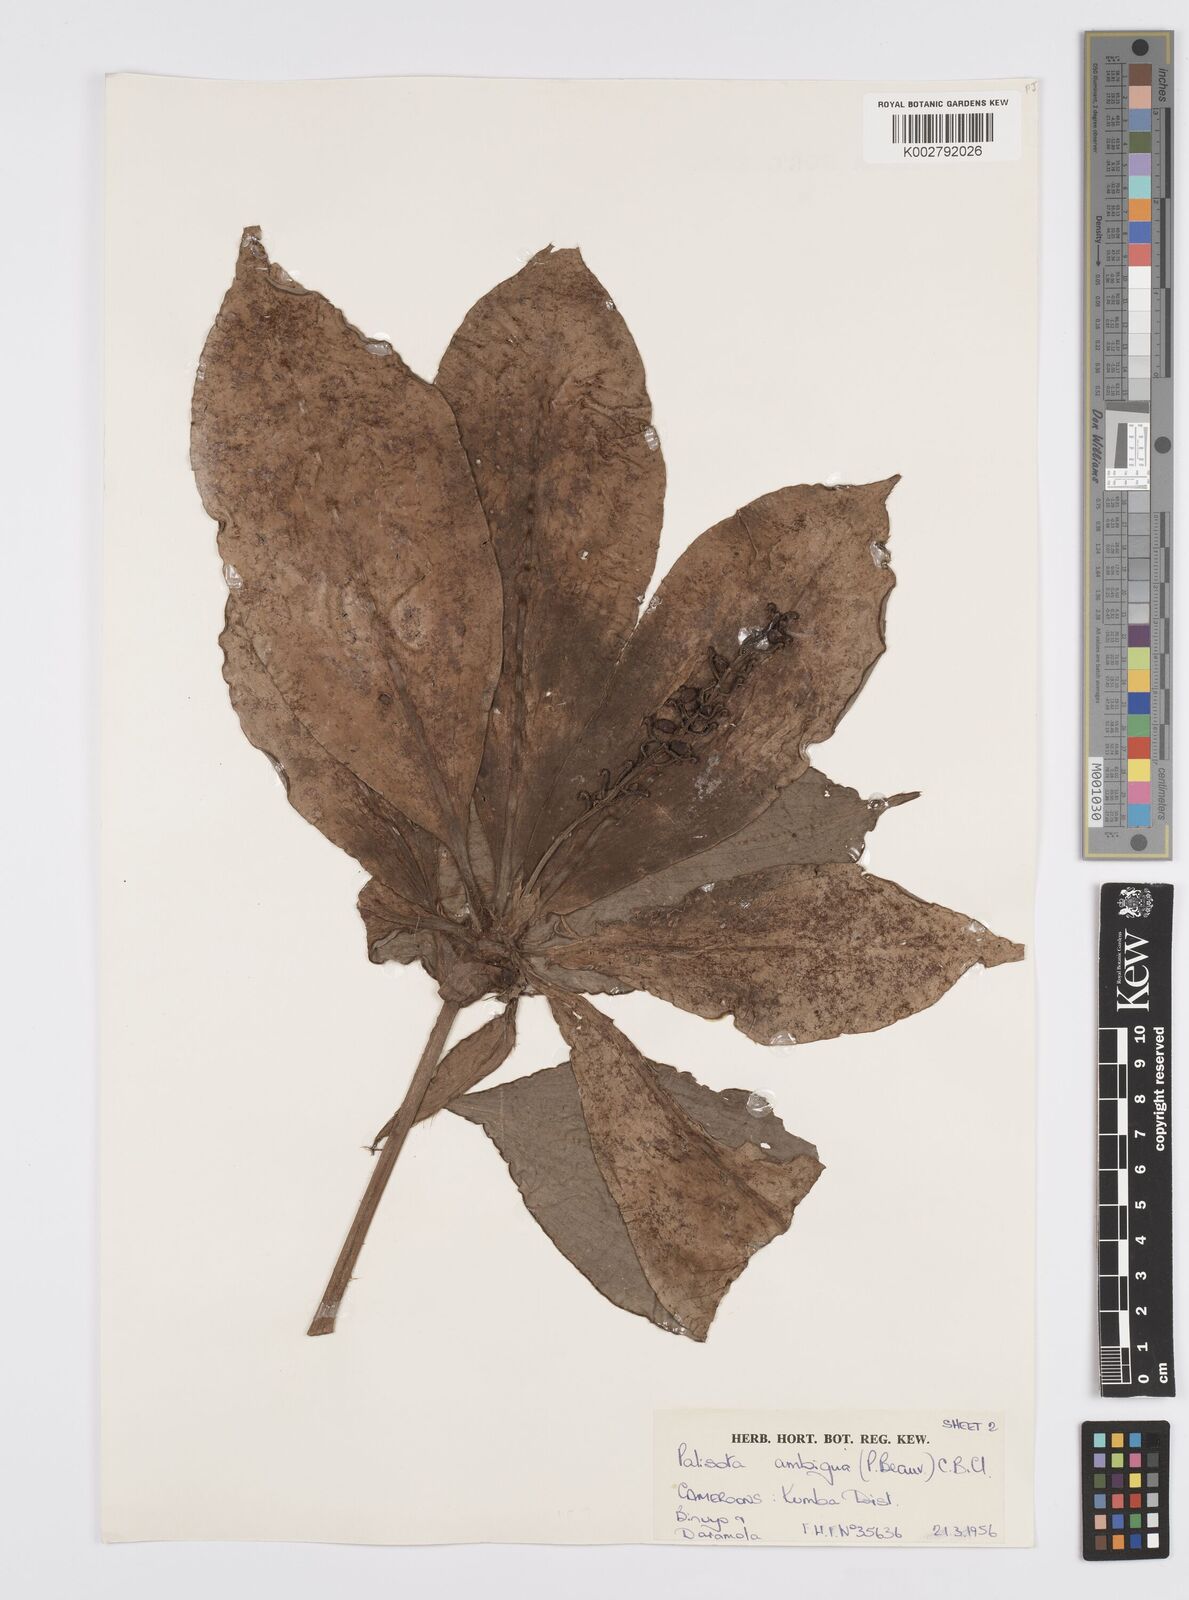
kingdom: Plantae
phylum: Tracheophyta
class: Liliopsida
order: Commelinales
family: Commelinaceae
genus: Palisota
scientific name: Palisota ambigua
